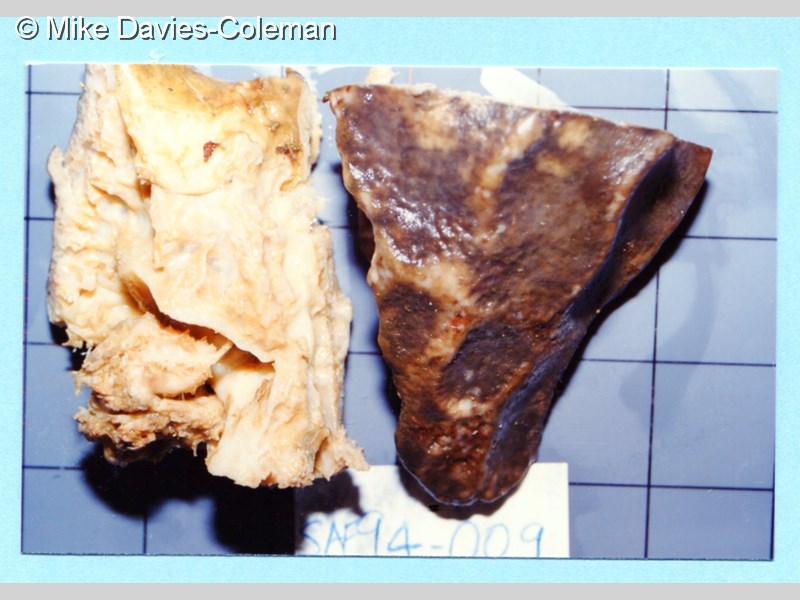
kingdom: Animalia
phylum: Porifera
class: Demospongiae
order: Clionaida
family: Spirastrellidae
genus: Spirastrella
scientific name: Spirastrella
